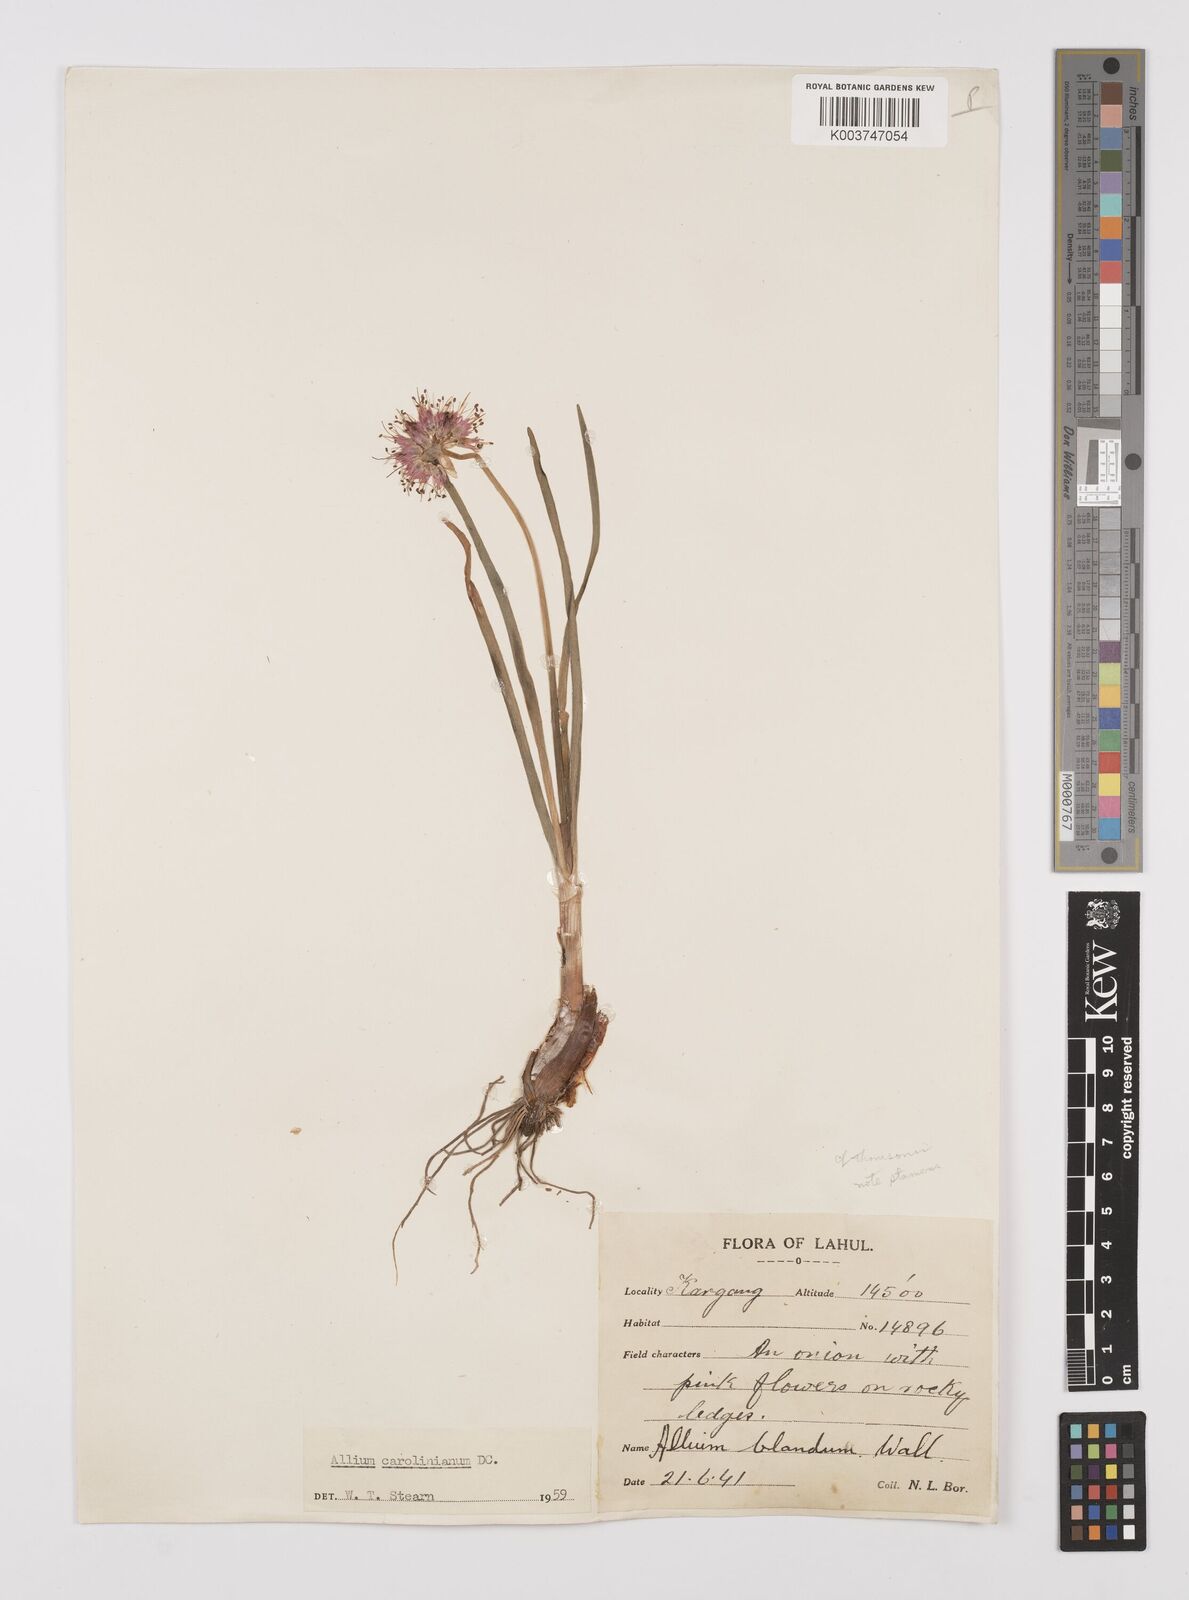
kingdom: Plantae
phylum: Tracheophyta
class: Liliopsida
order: Asparagales
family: Amaryllidaceae
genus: Allium
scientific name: Allium blandum
